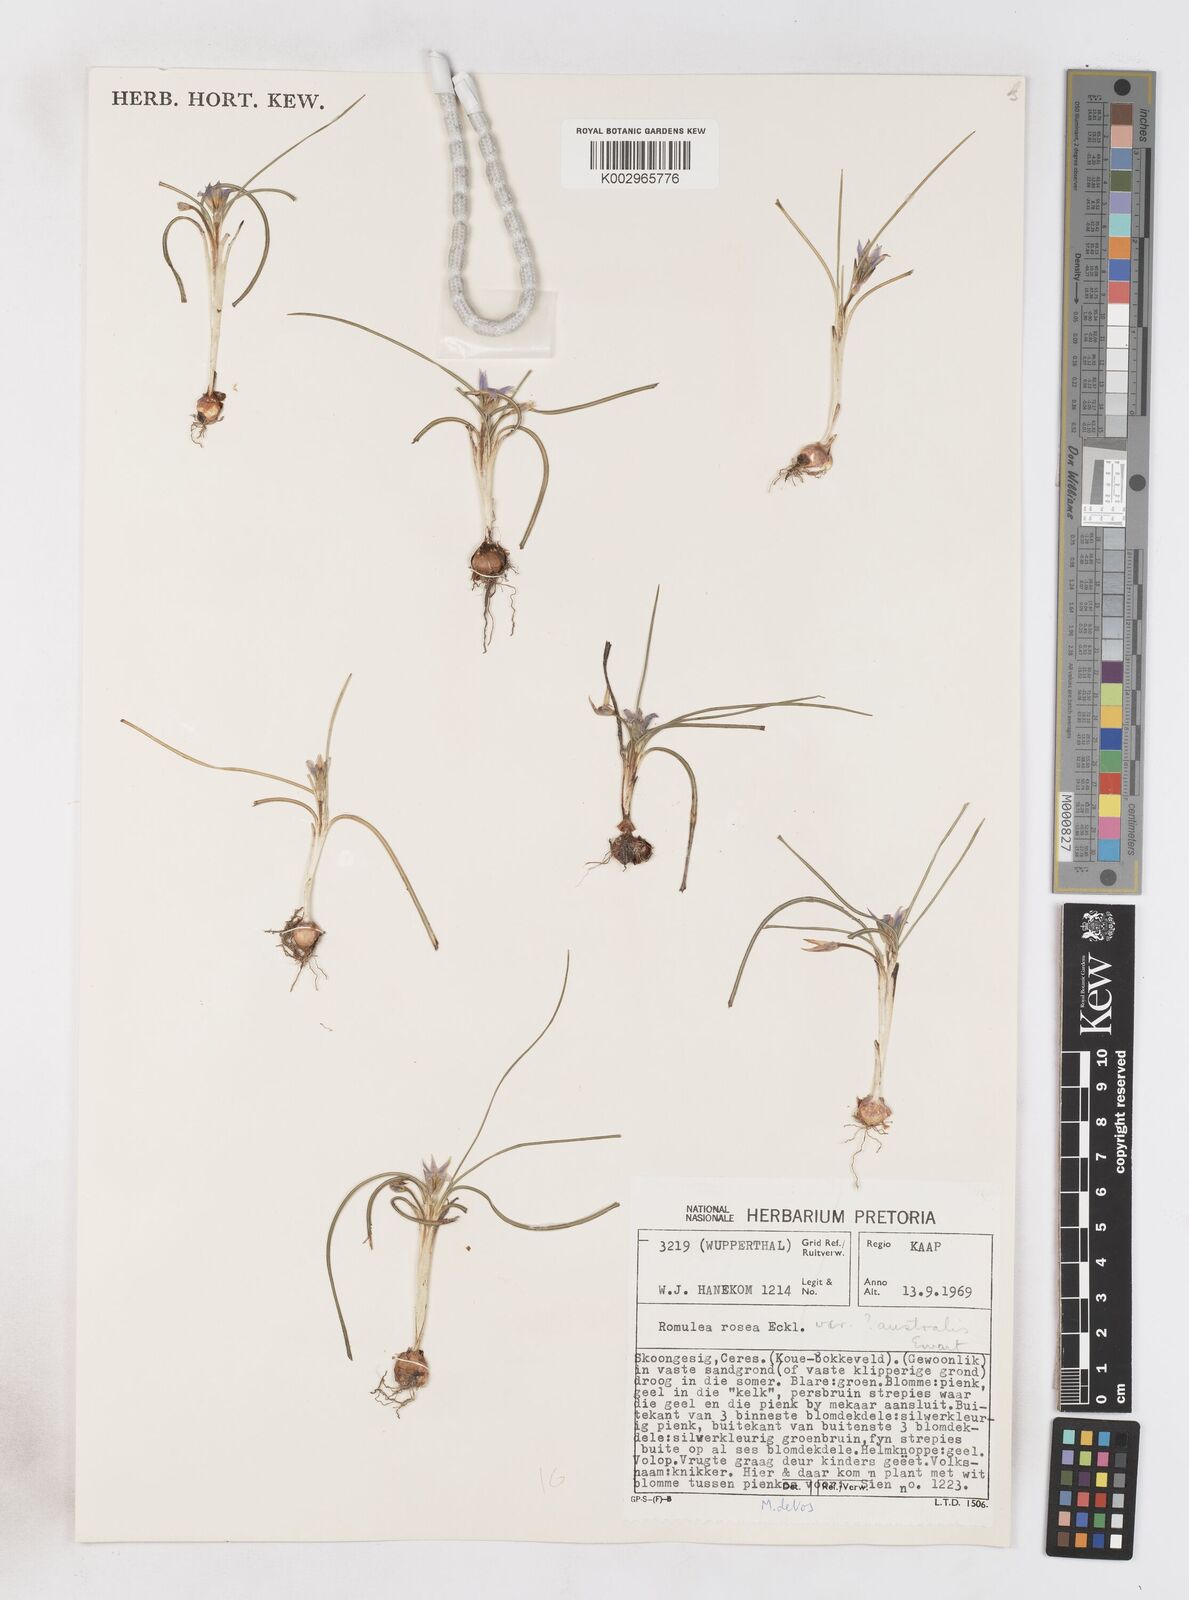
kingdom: Plantae
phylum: Tracheophyta
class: Liliopsida
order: Asparagales
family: Iridaceae
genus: Romulea
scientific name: Romulea rosea
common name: Oniongrass
